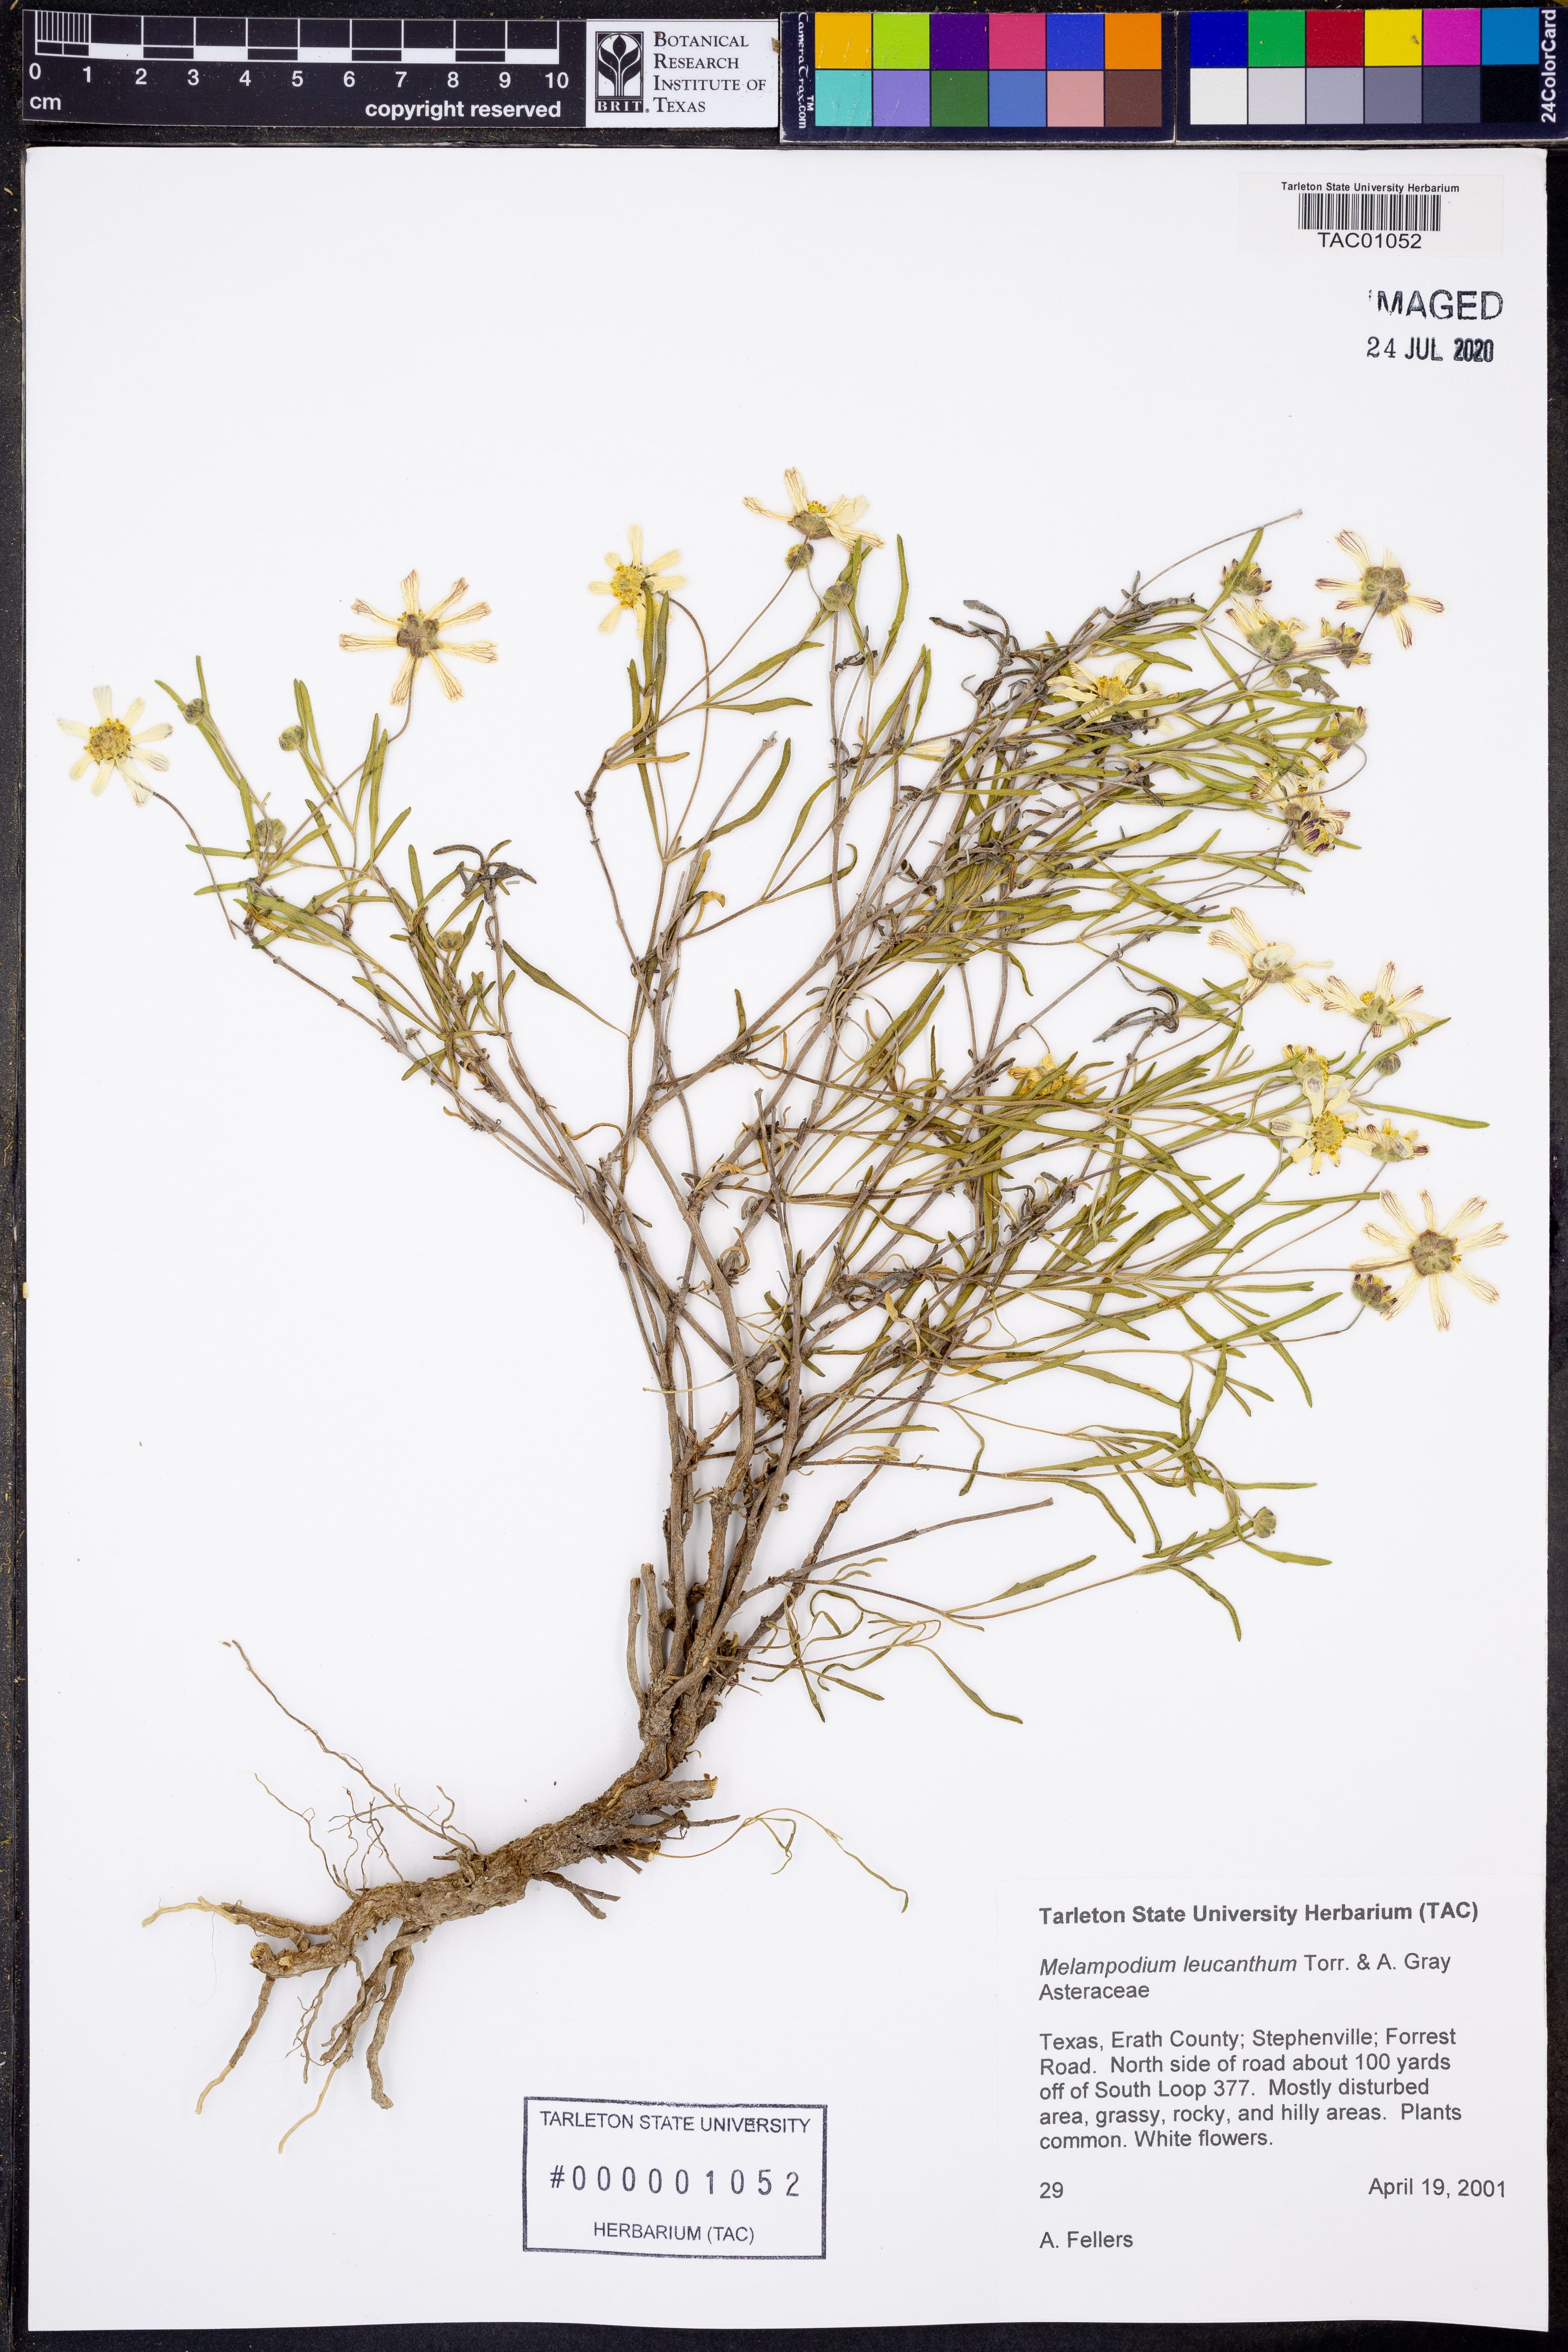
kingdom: Plantae
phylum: Tracheophyta
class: Magnoliopsida
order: Asterales
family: Asteraceae
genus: Melampodium
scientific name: Melampodium leucanthum
